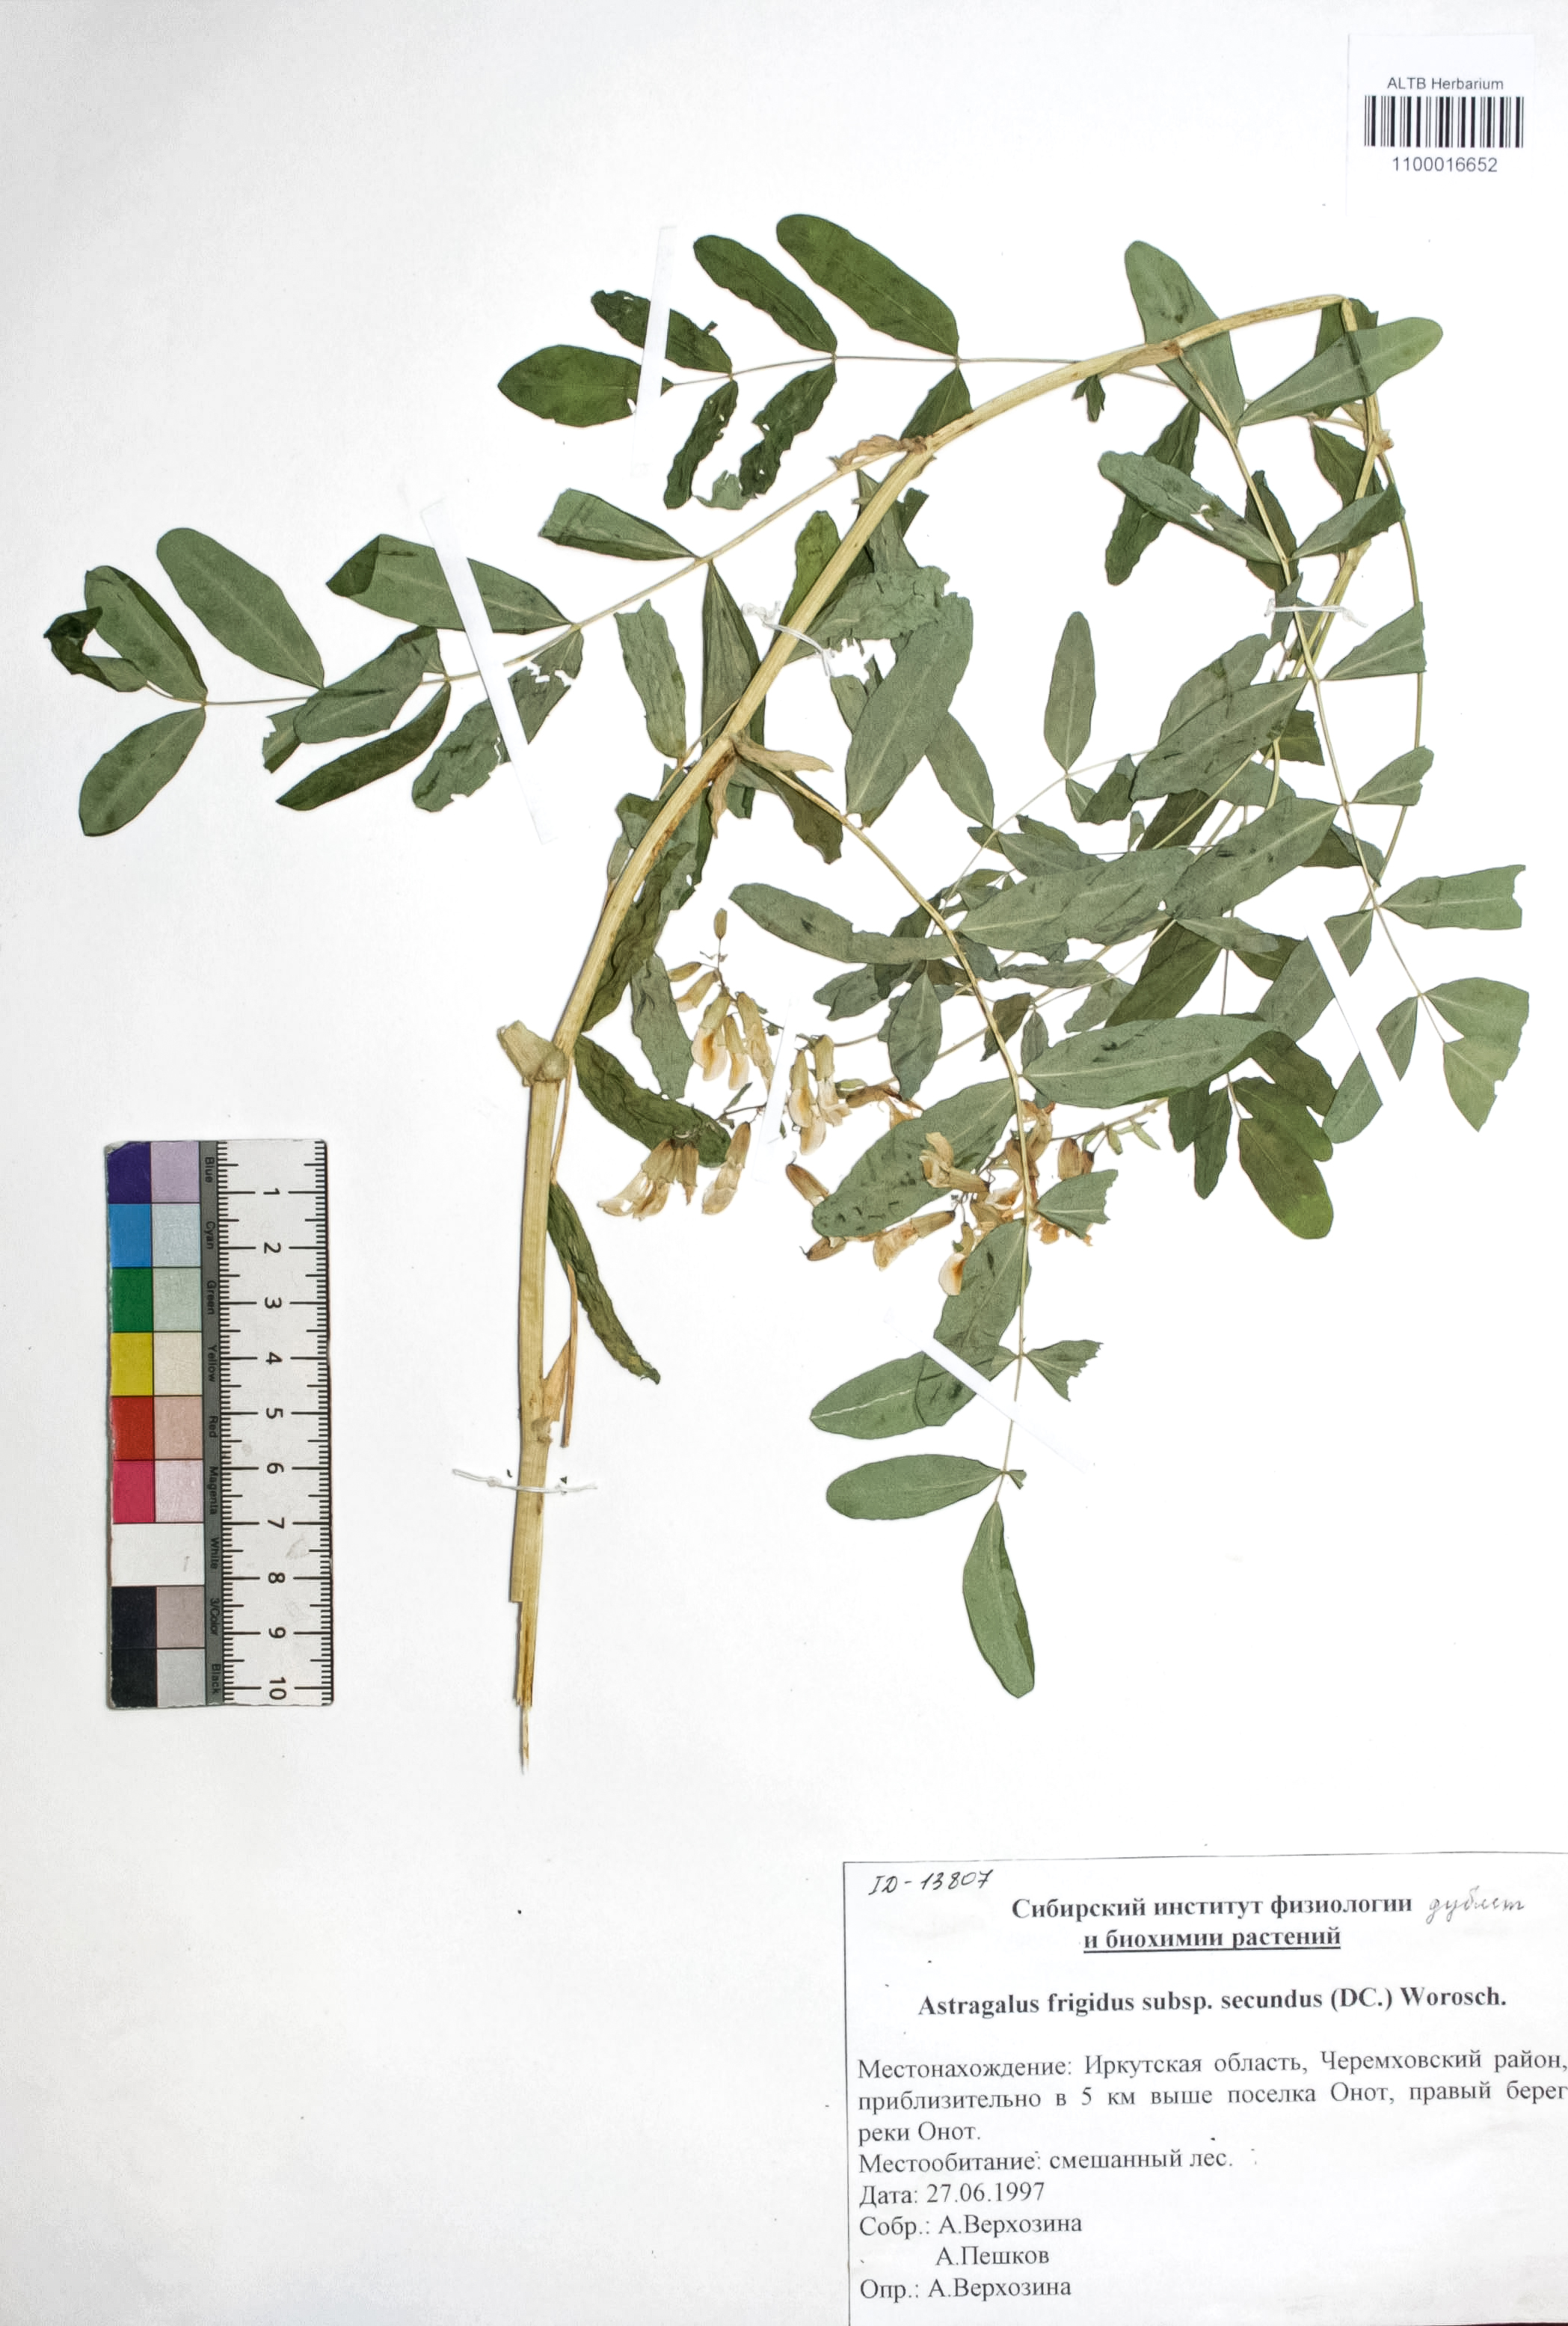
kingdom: Plantae
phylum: Tracheophyta
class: Magnoliopsida
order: Fabales
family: Fabaceae
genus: Astragalus
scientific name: Astragalus frigidus
